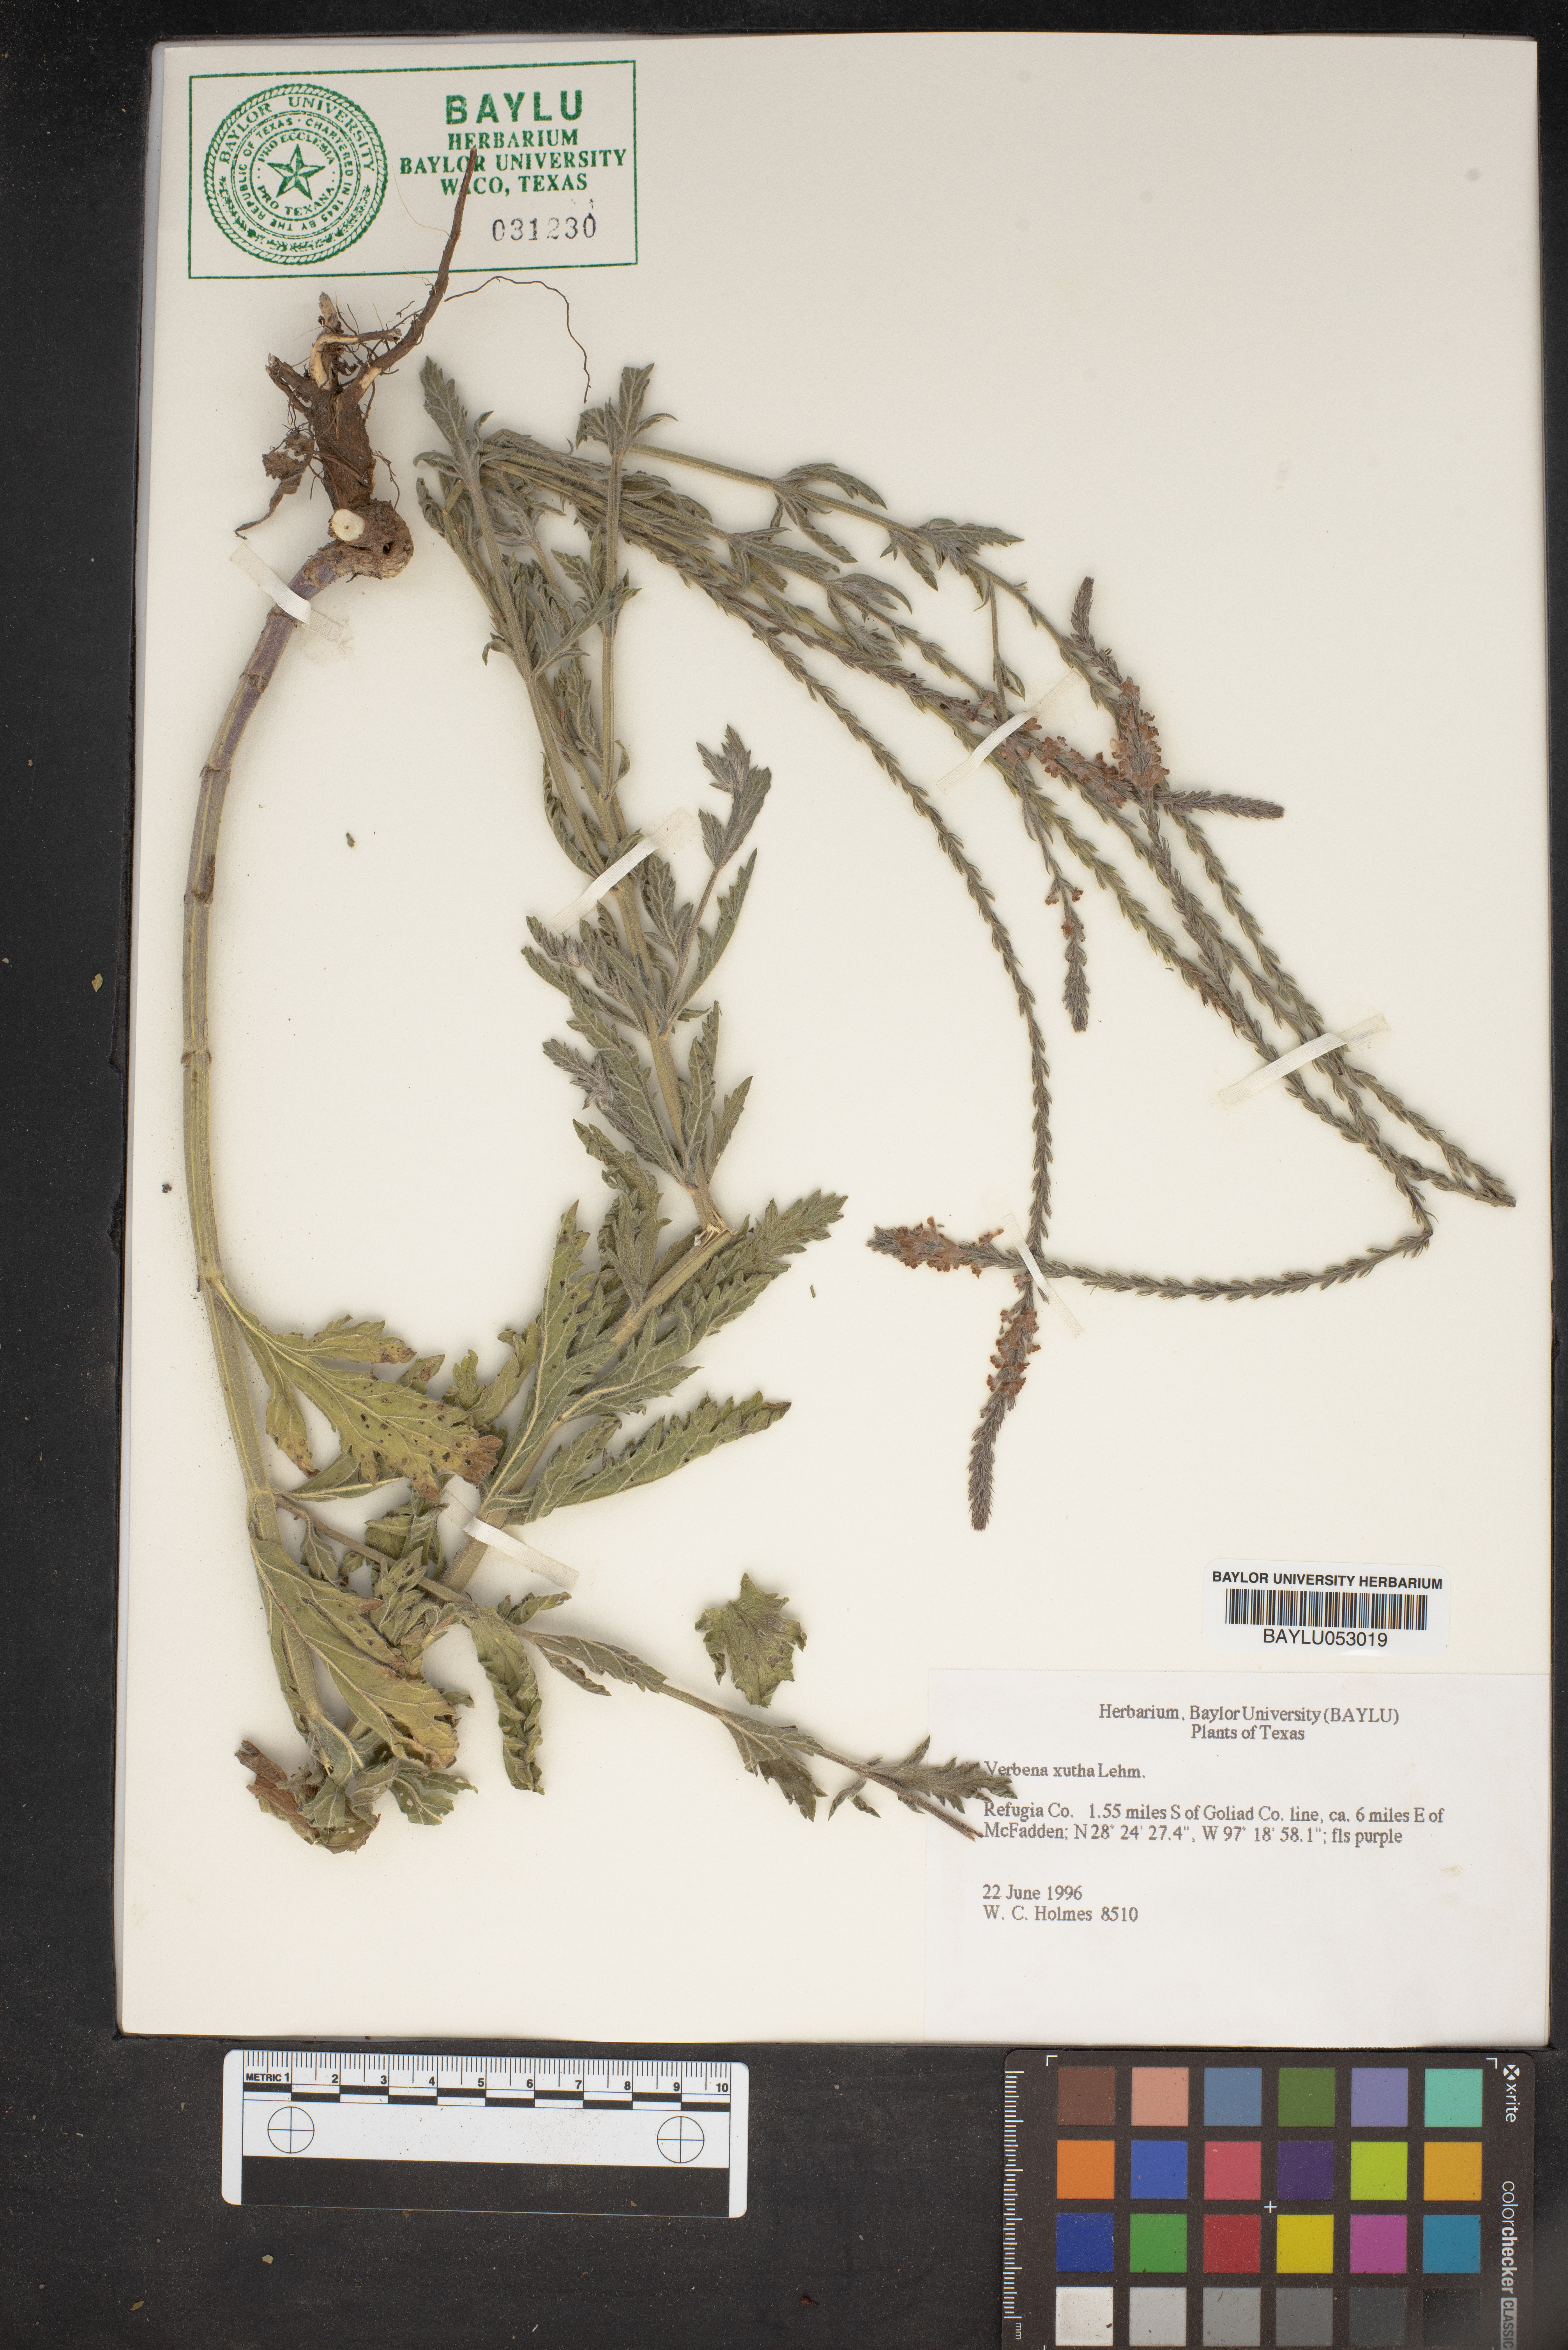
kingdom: Plantae
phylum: Tracheophyta
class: Magnoliopsida
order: Lamiales
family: Verbenaceae
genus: Verbena
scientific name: Verbena xutha
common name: Gulf vervain
